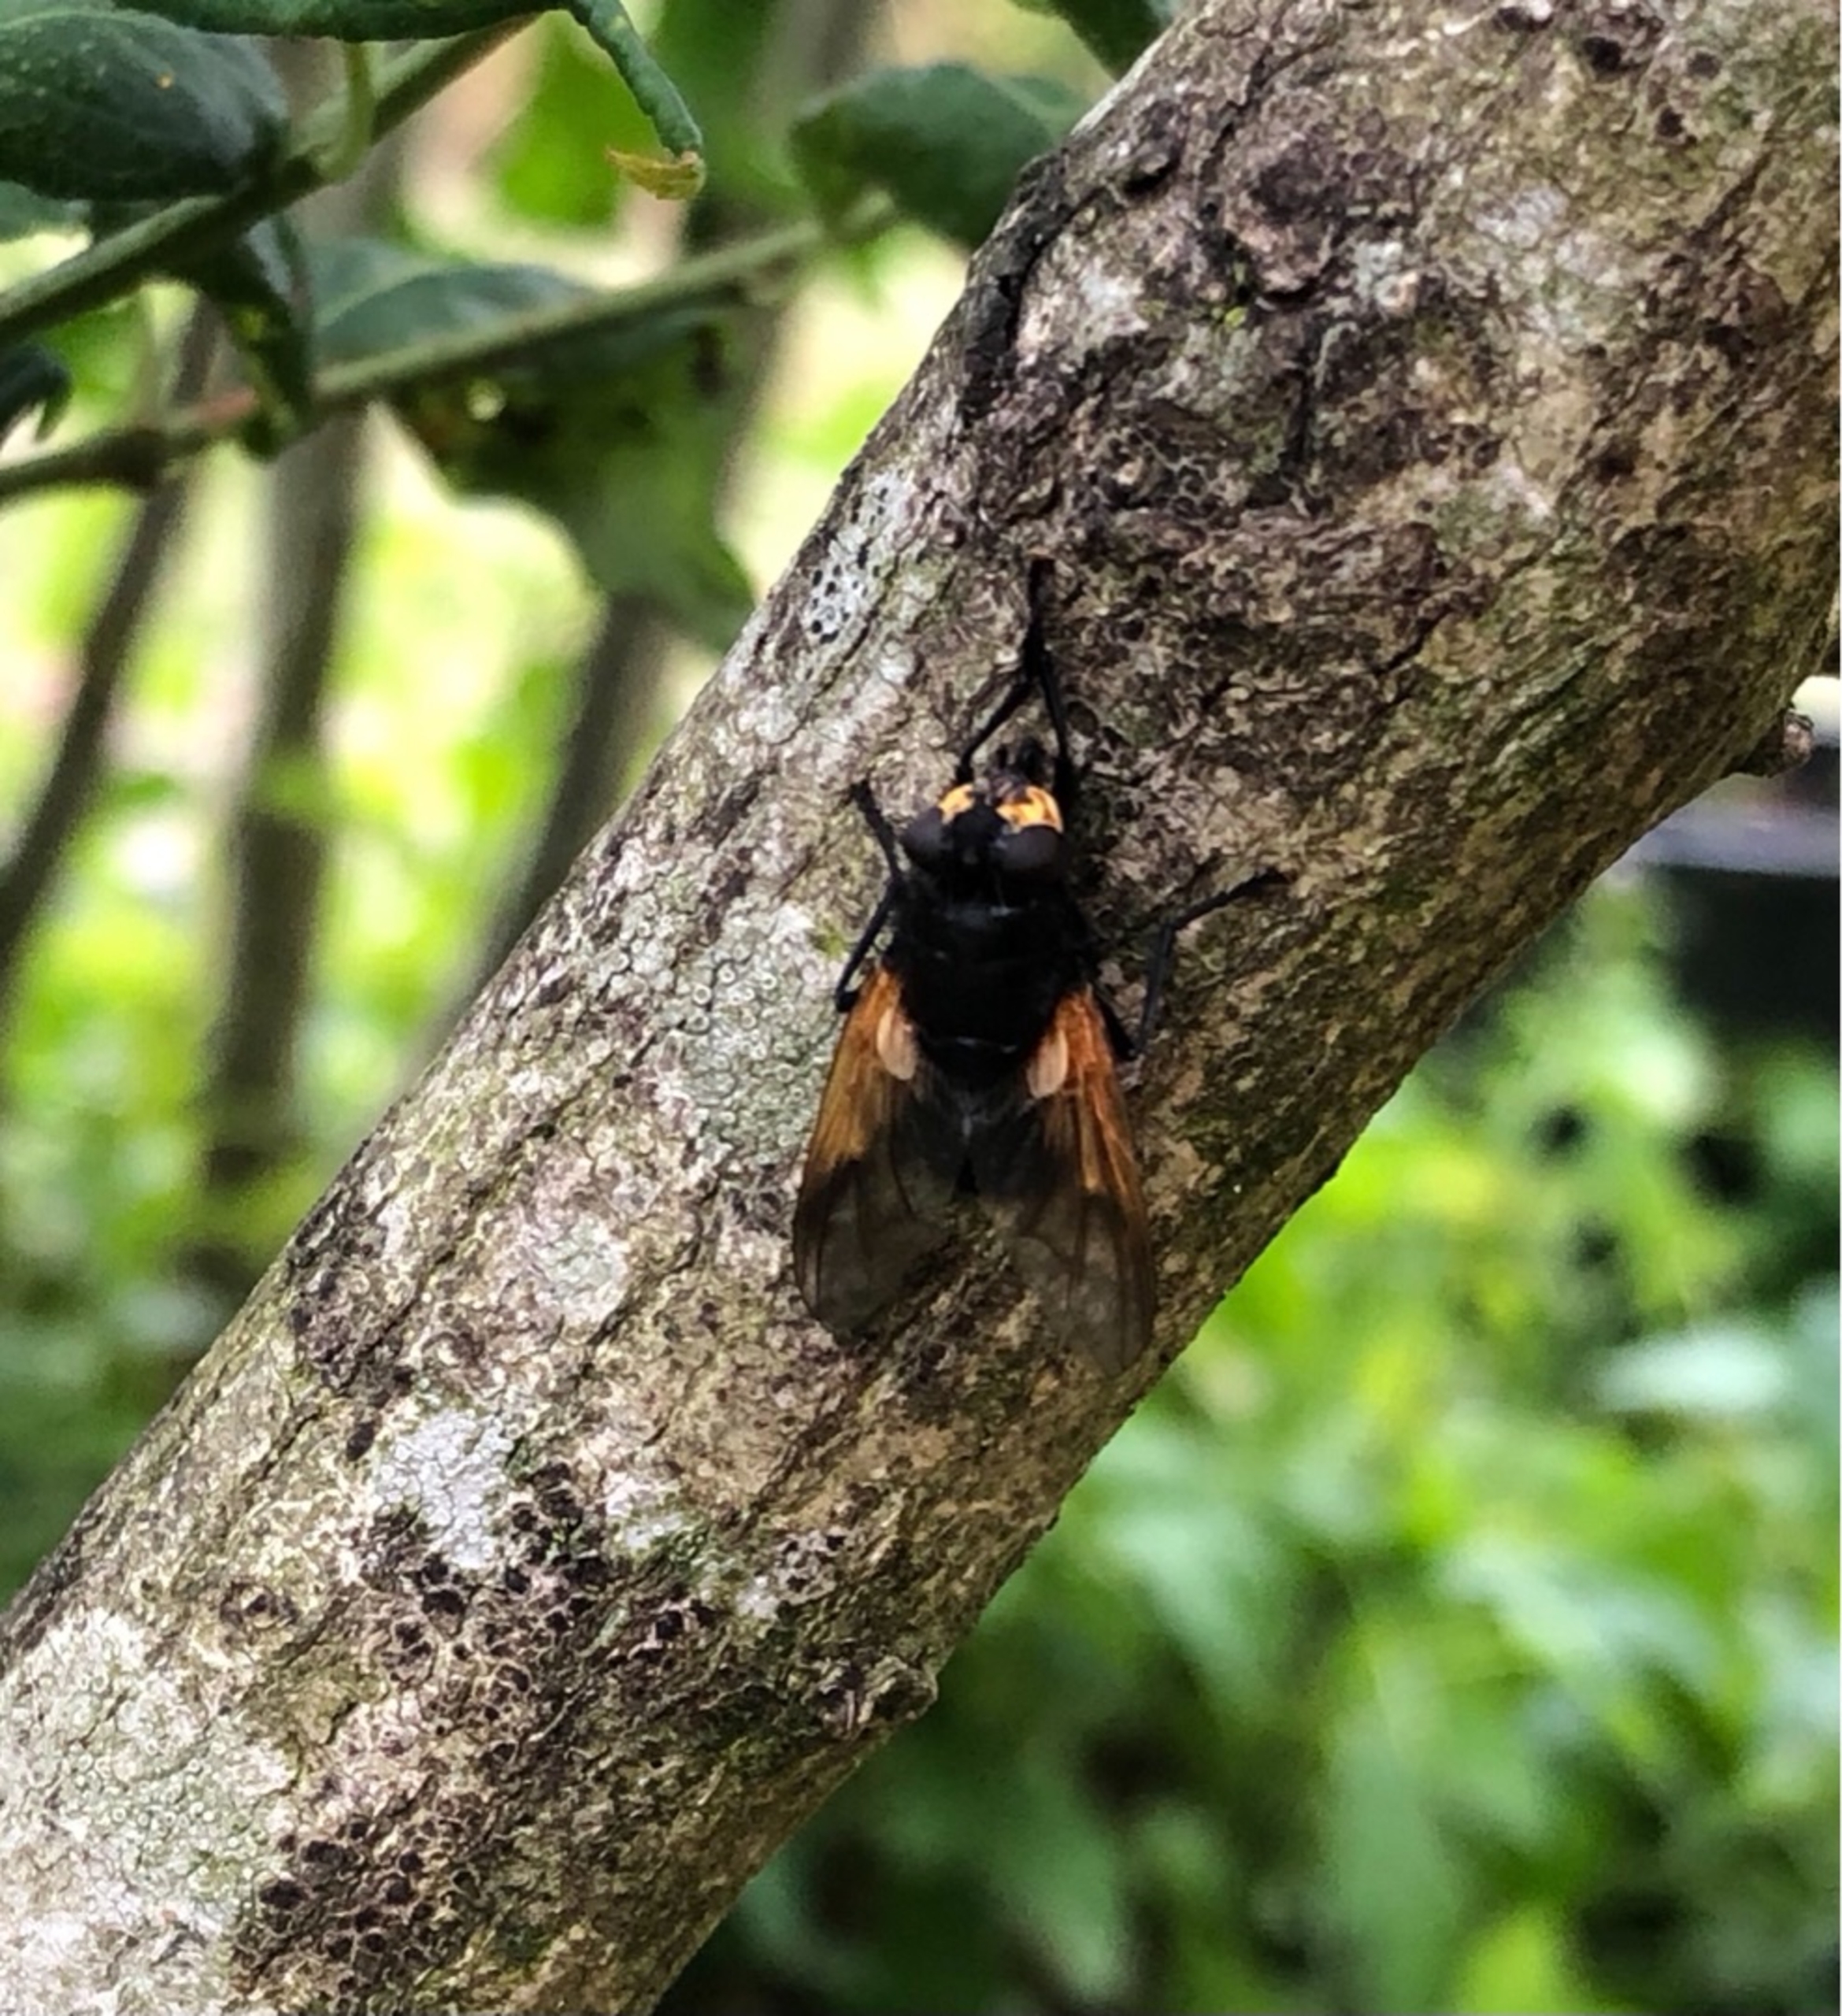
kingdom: Animalia
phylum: Arthropoda
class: Insecta
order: Diptera
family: Muscidae
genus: Mesembrina
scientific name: Mesembrina meridiana
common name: Gulvinget flue
